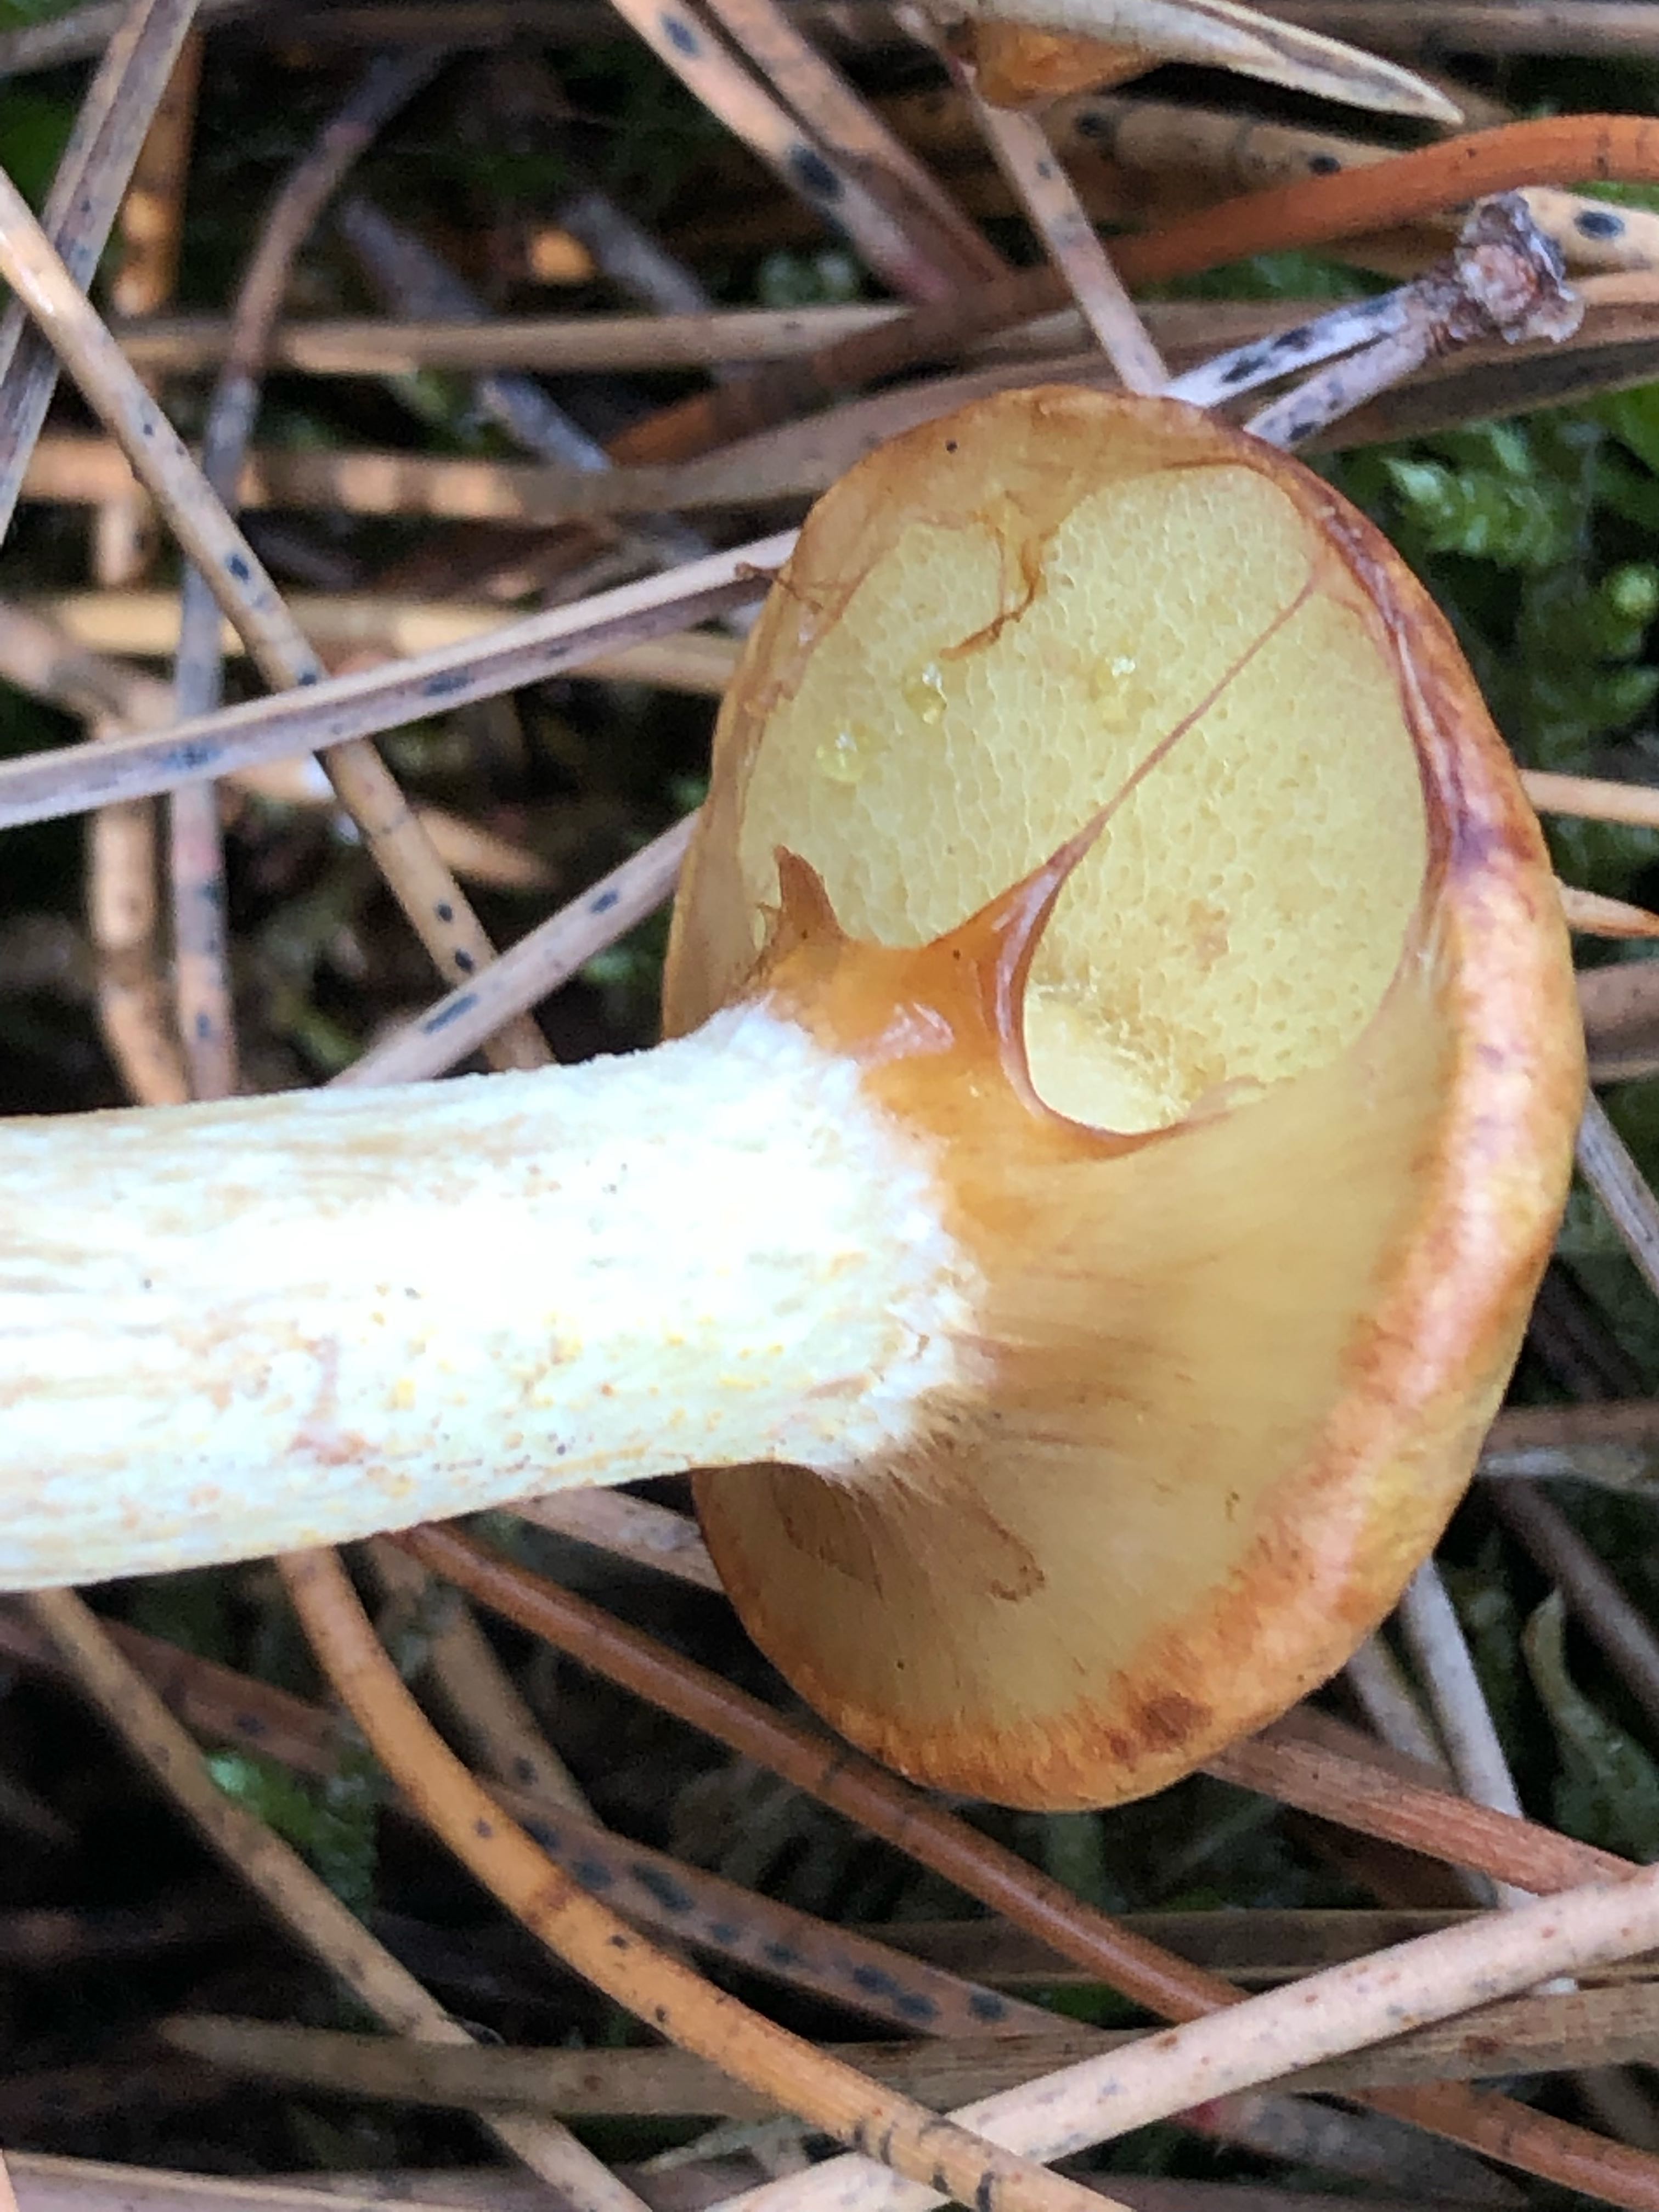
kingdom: Fungi
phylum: Basidiomycota
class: Agaricomycetes
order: Boletales
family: Suillaceae
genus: Suillus
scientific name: Suillus flavidus
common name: mose-slimrørhat
